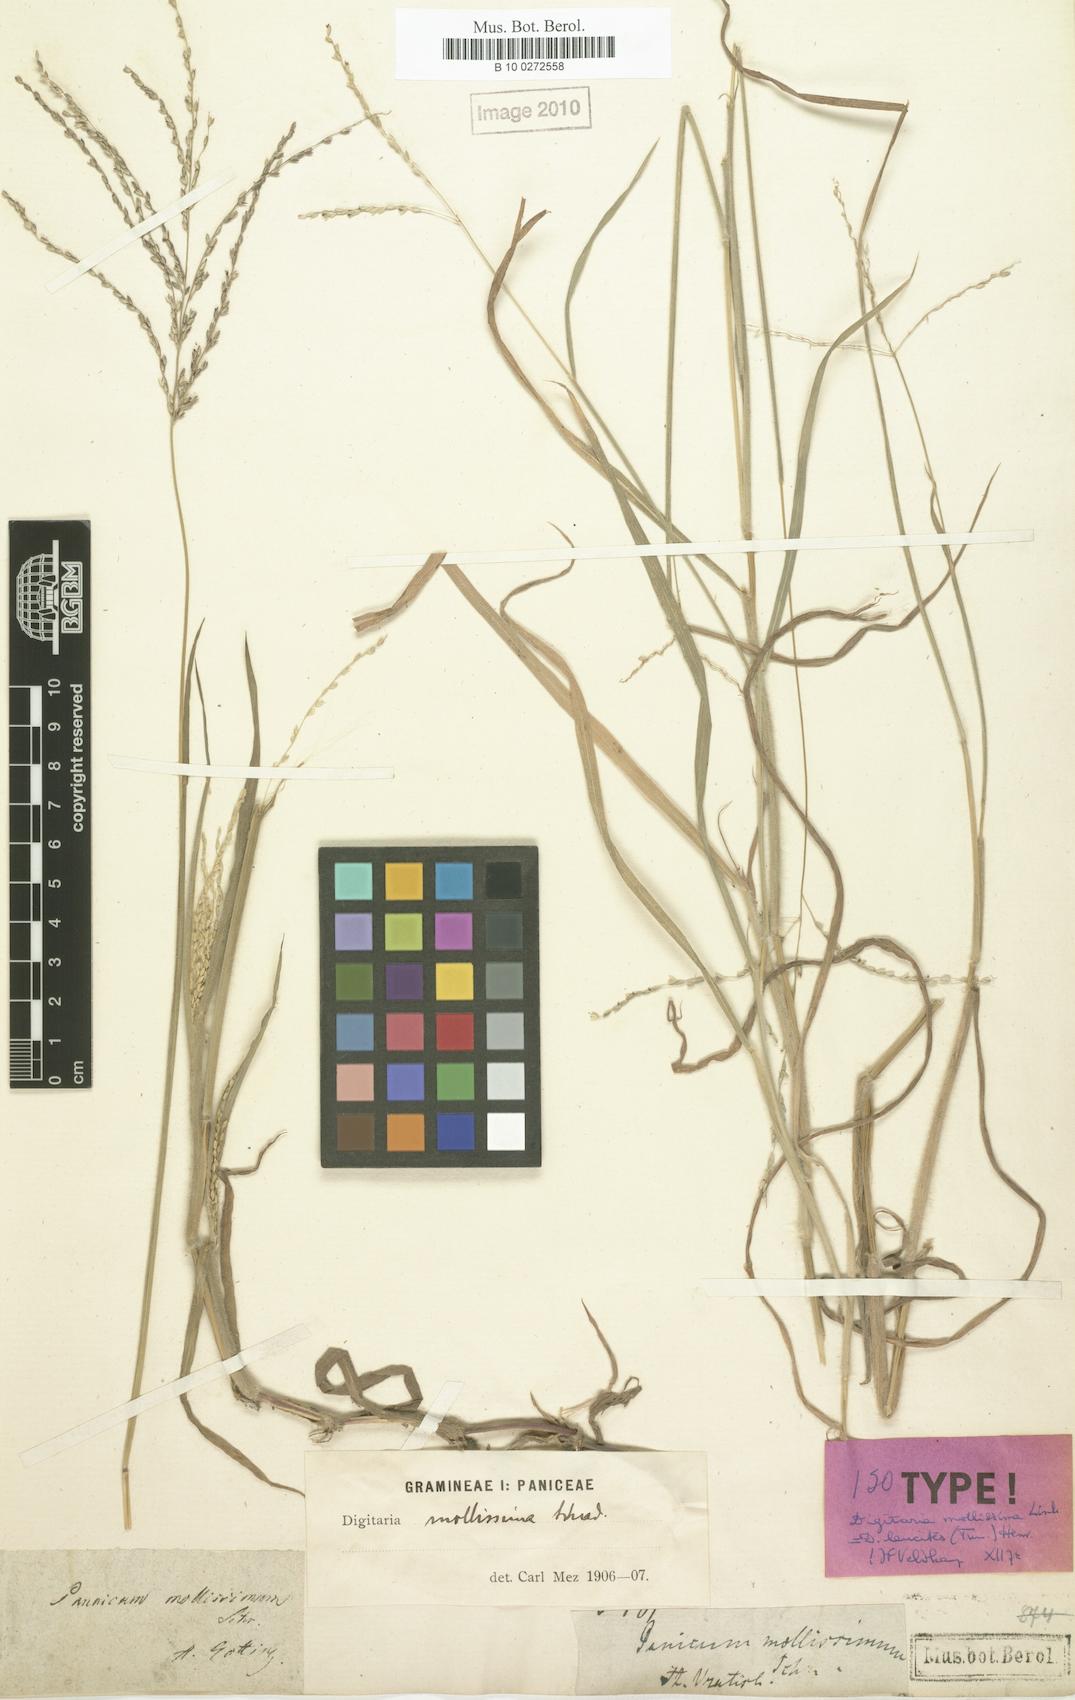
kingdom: Plantae
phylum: Tracheophyta
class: Liliopsida
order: Poales
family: Poaceae
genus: Digitaria
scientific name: Digitaria leucites
